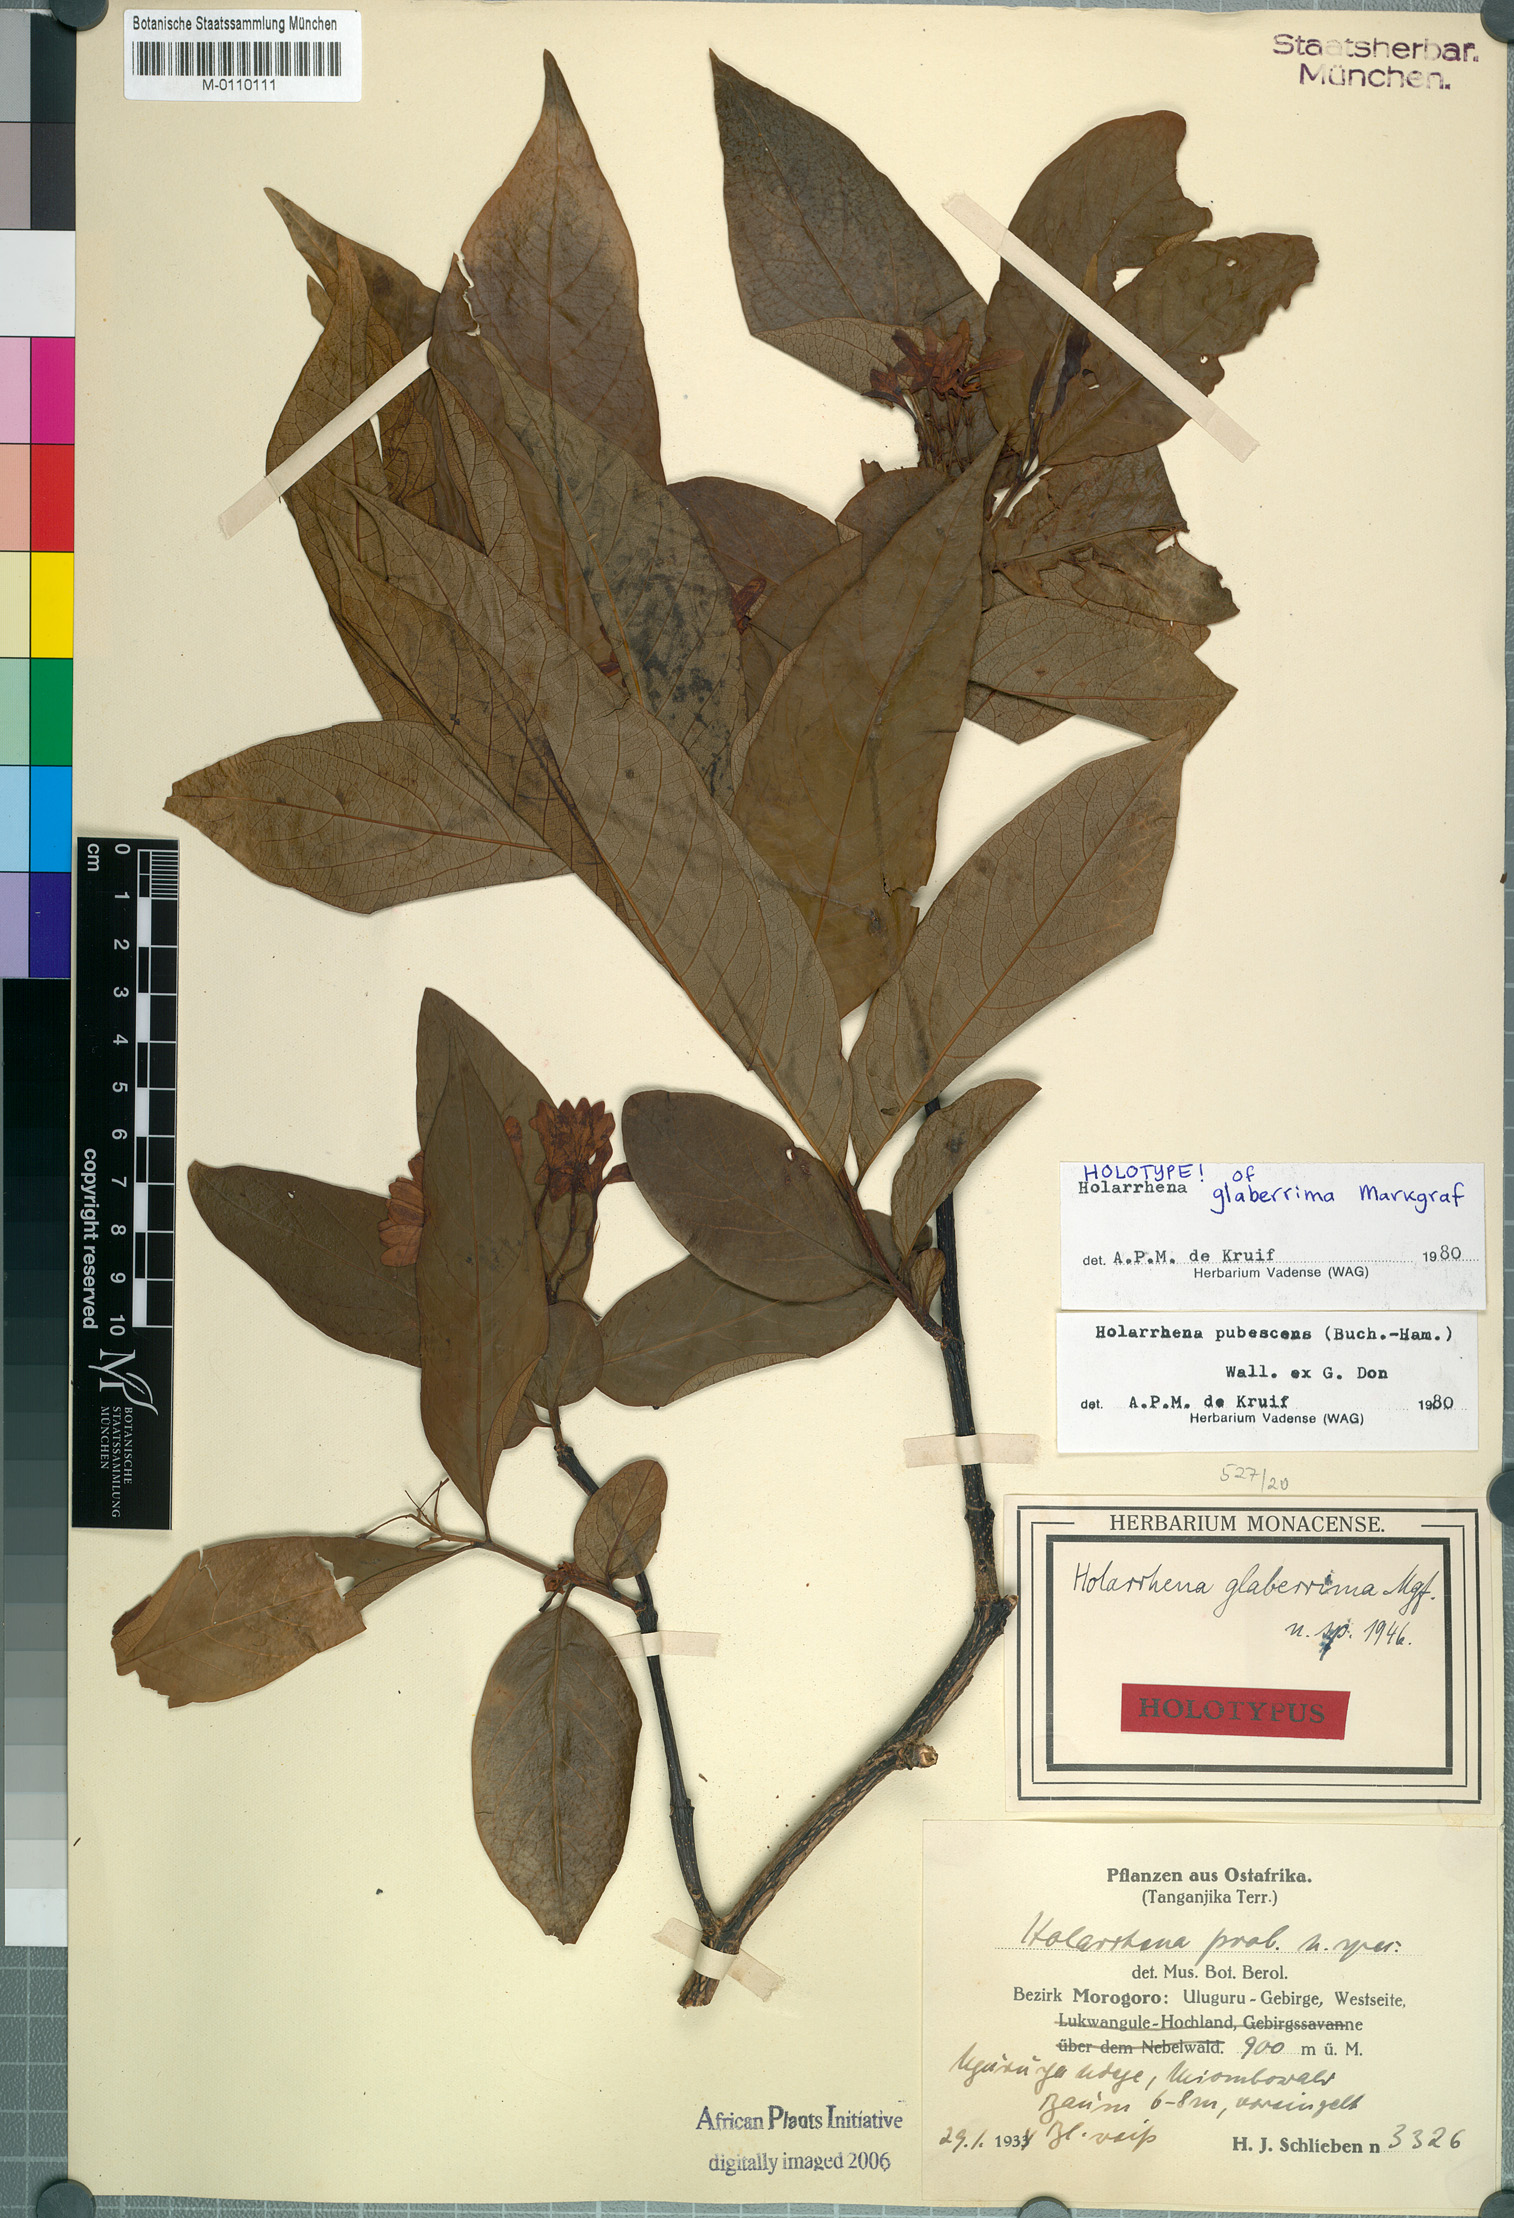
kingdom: Plantae
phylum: Tracheophyta
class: Magnoliopsida
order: Gentianales
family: Apocynaceae
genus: Holarrhena
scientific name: Holarrhena pubescens
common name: Bitter oleander
